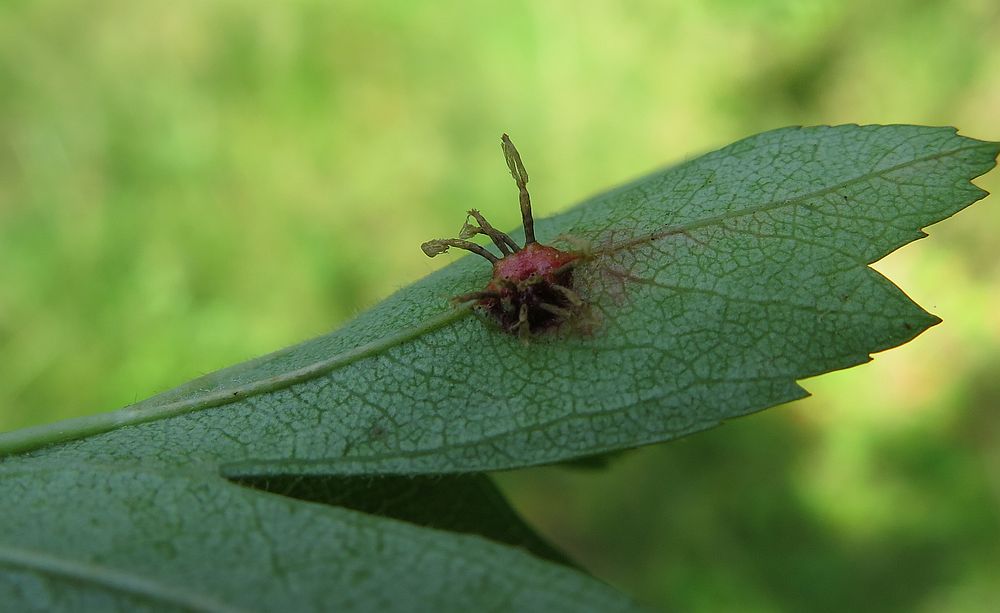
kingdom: Fungi
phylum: Basidiomycota
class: Pucciniomycetes
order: Pucciniales
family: Gymnosporangiaceae
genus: Gymnosporangium
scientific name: Gymnosporangium clavariiforme
